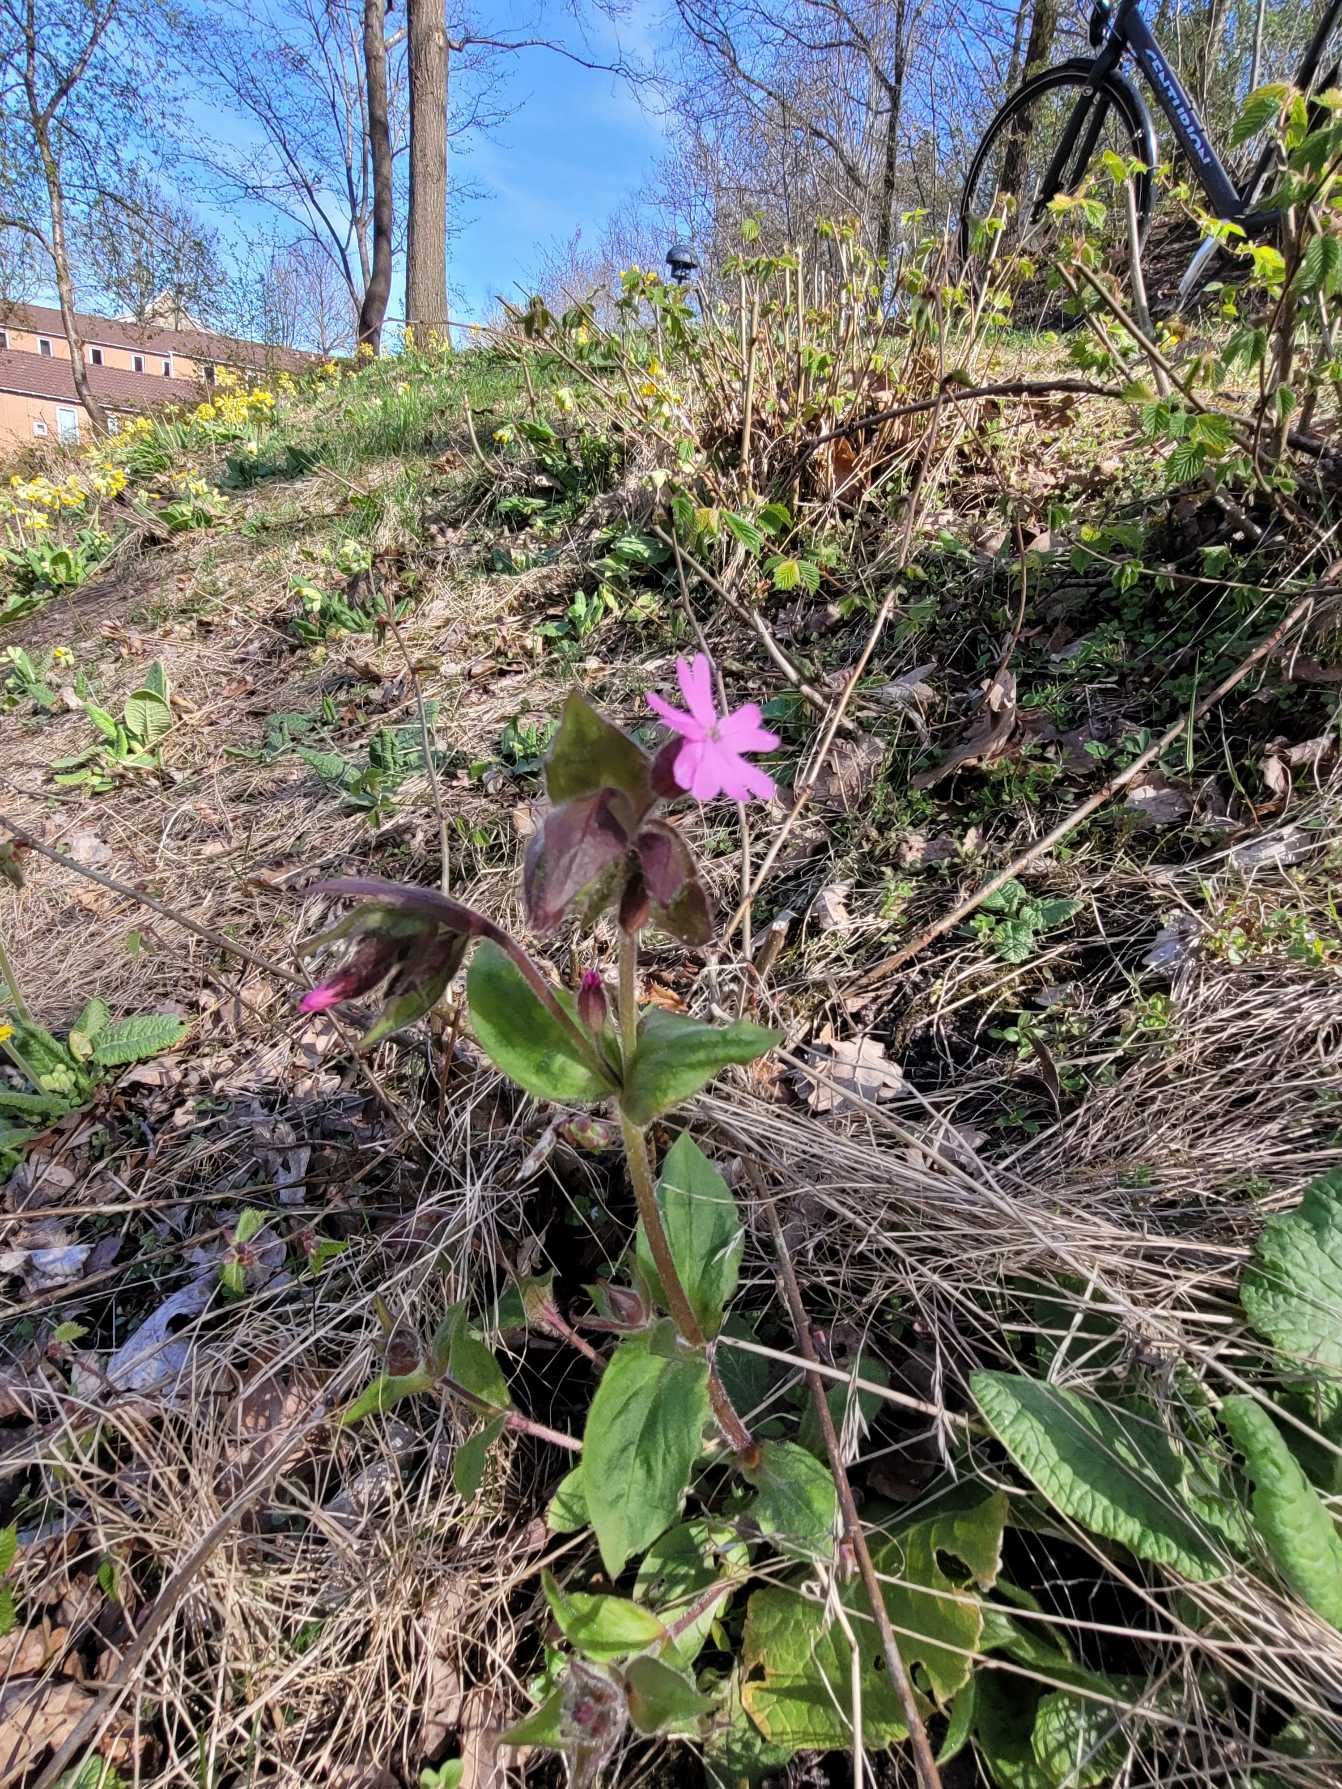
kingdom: Plantae
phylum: Tracheophyta
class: Magnoliopsida
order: Caryophyllales
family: Caryophyllaceae
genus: Silene
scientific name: Silene dioica
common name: Dagpragtstjerne
